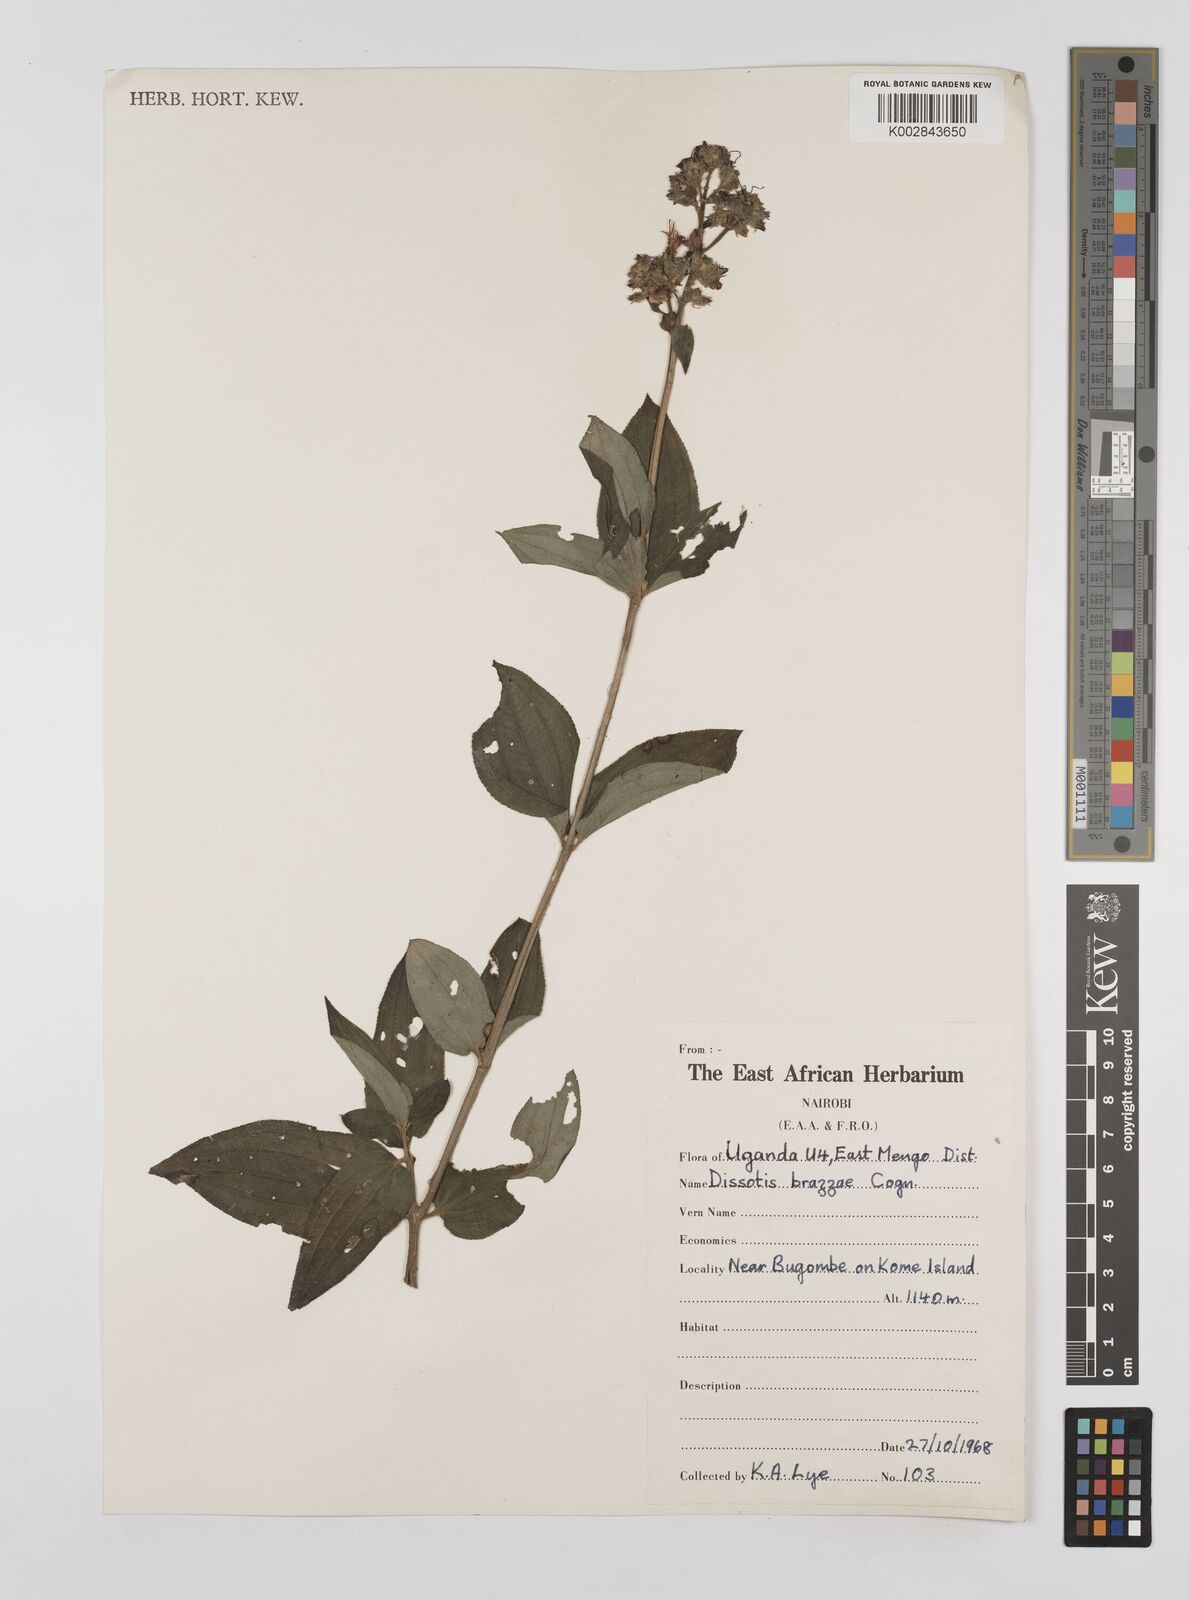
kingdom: Plantae
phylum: Tracheophyta
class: Magnoliopsida
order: Myrtales
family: Melastomataceae
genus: Dupineta
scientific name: Dupineta brazzae
